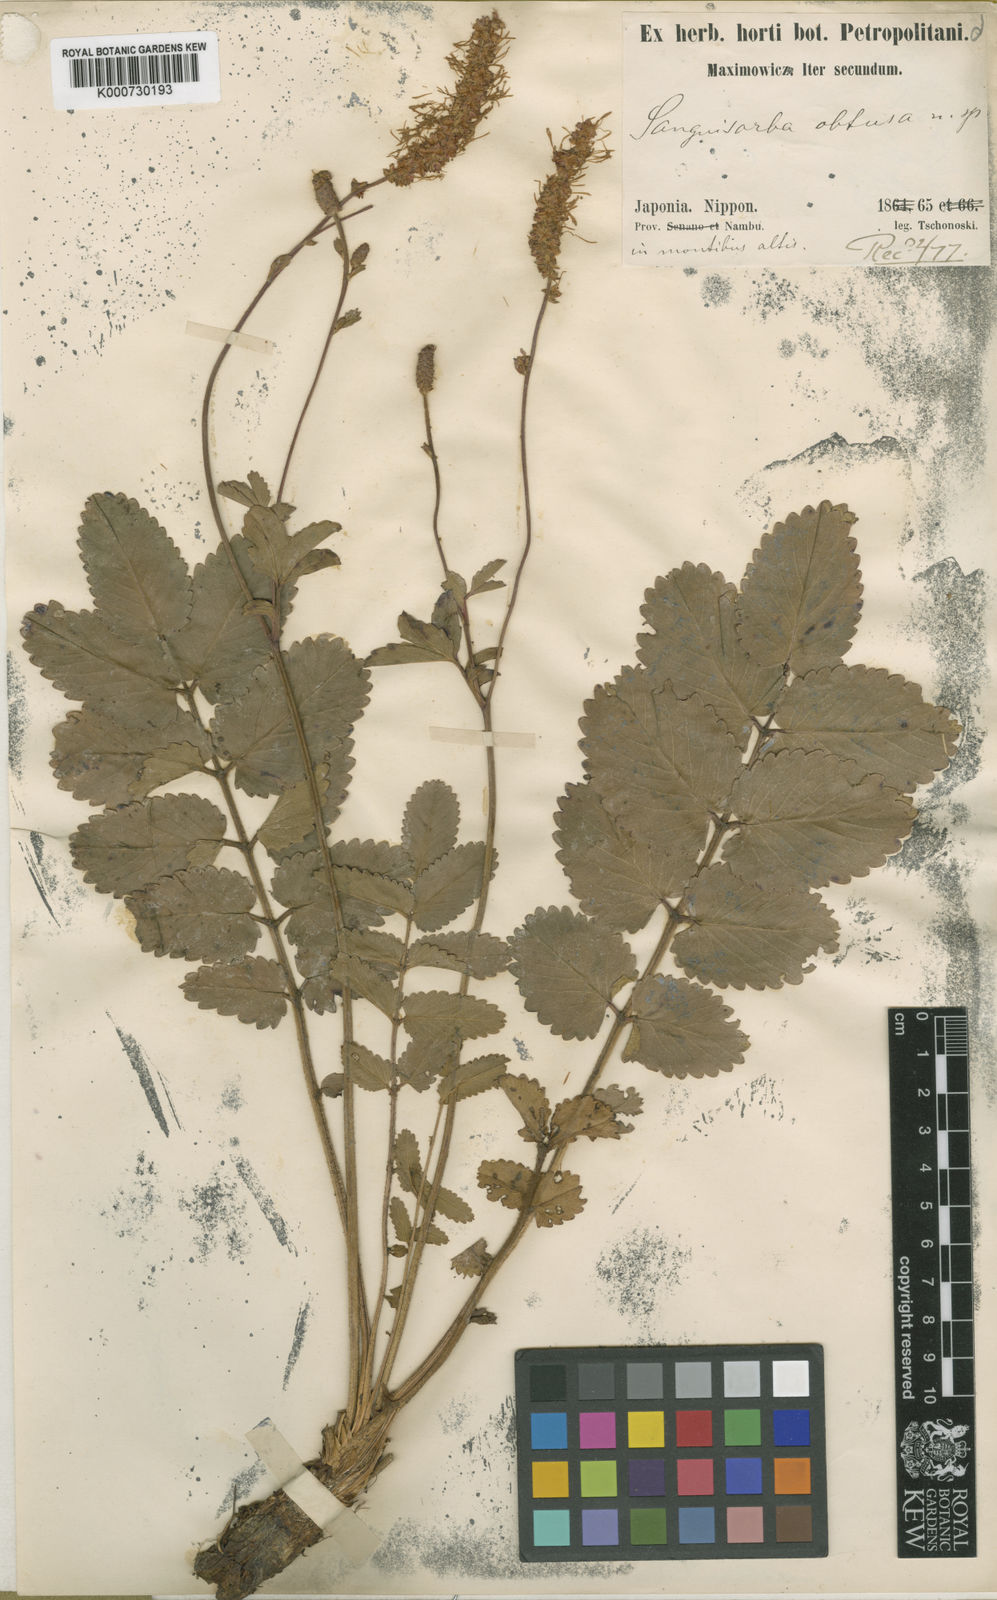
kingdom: Plantae
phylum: Tracheophyta
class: Magnoliopsida
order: Rosales
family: Rosaceae
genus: Sanguisorba
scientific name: Sanguisorba obtusa
